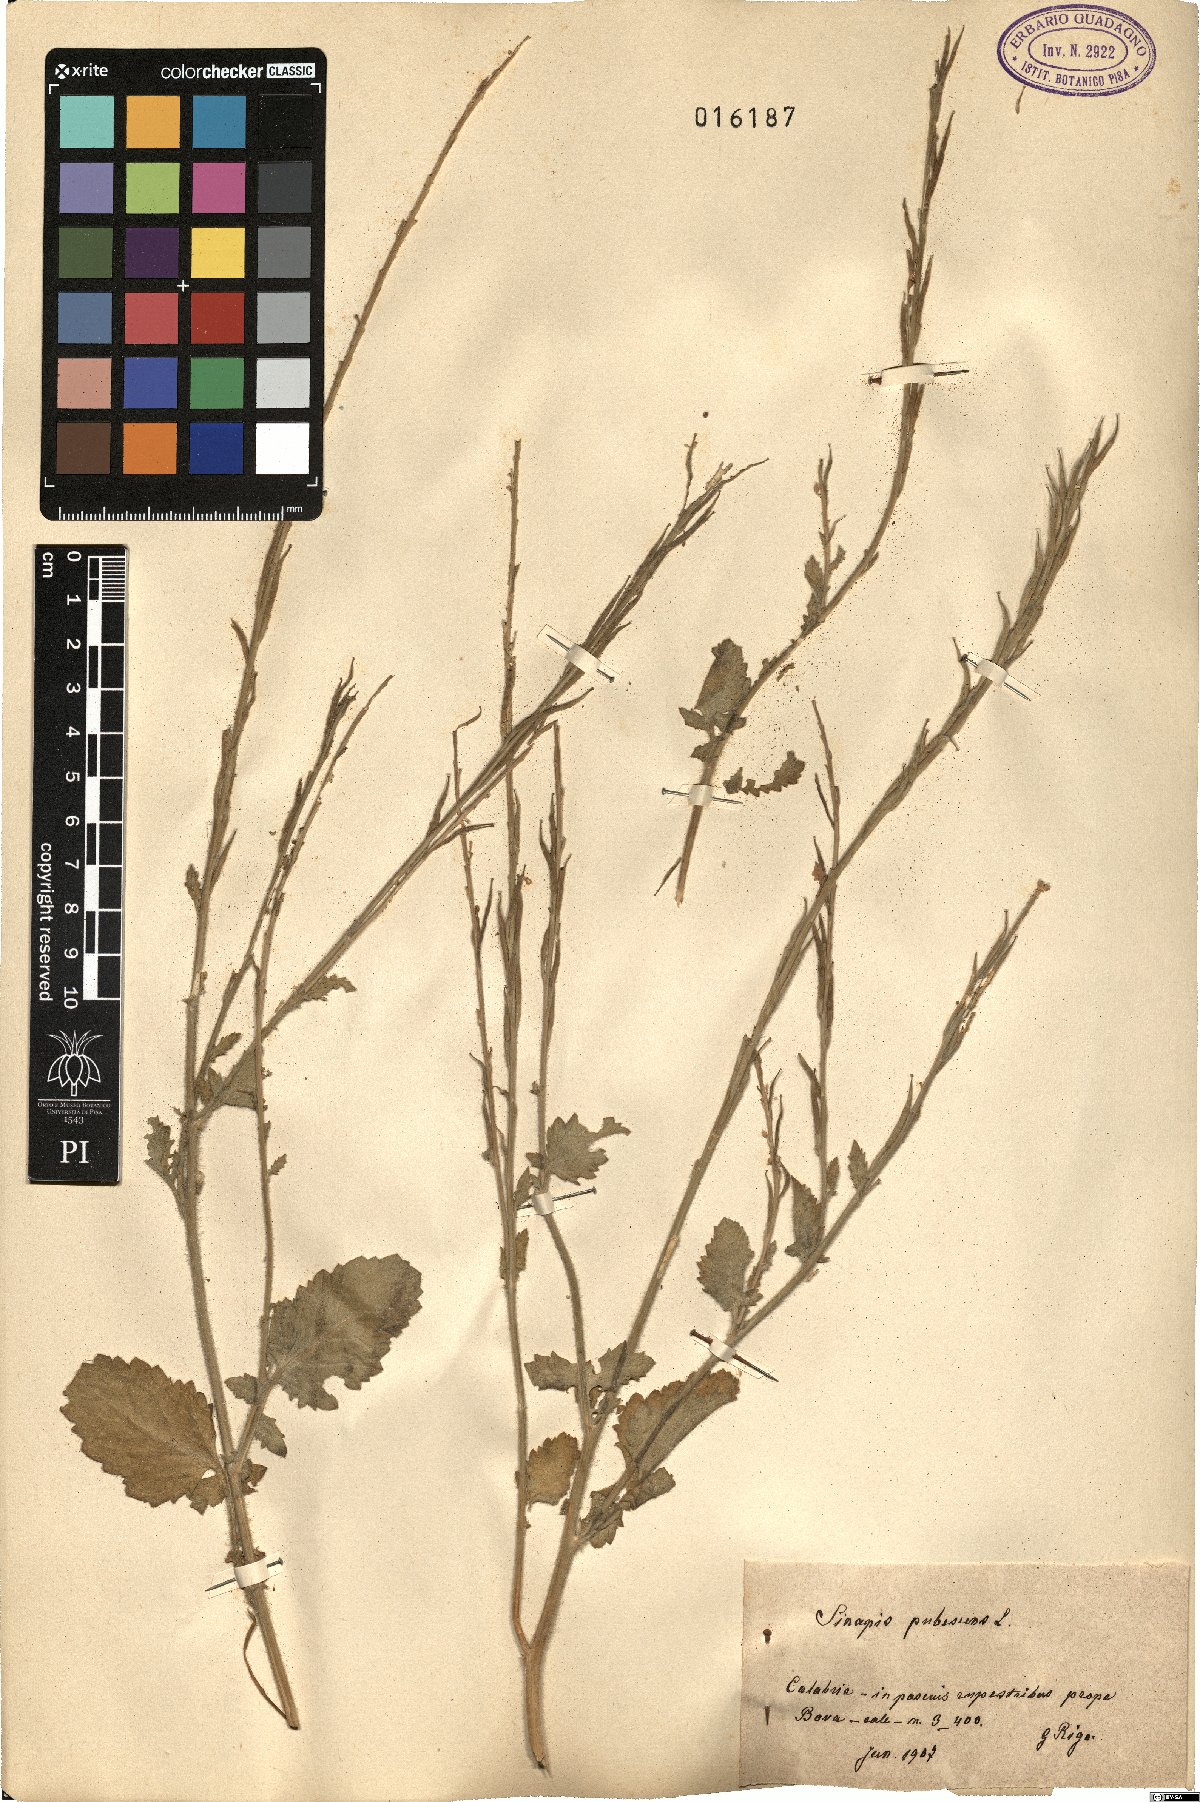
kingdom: Plantae
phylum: Tracheophyta
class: Magnoliopsida
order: Brassicales
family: Brassicaceae
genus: Sinapis
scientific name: Sinapis pubescens
